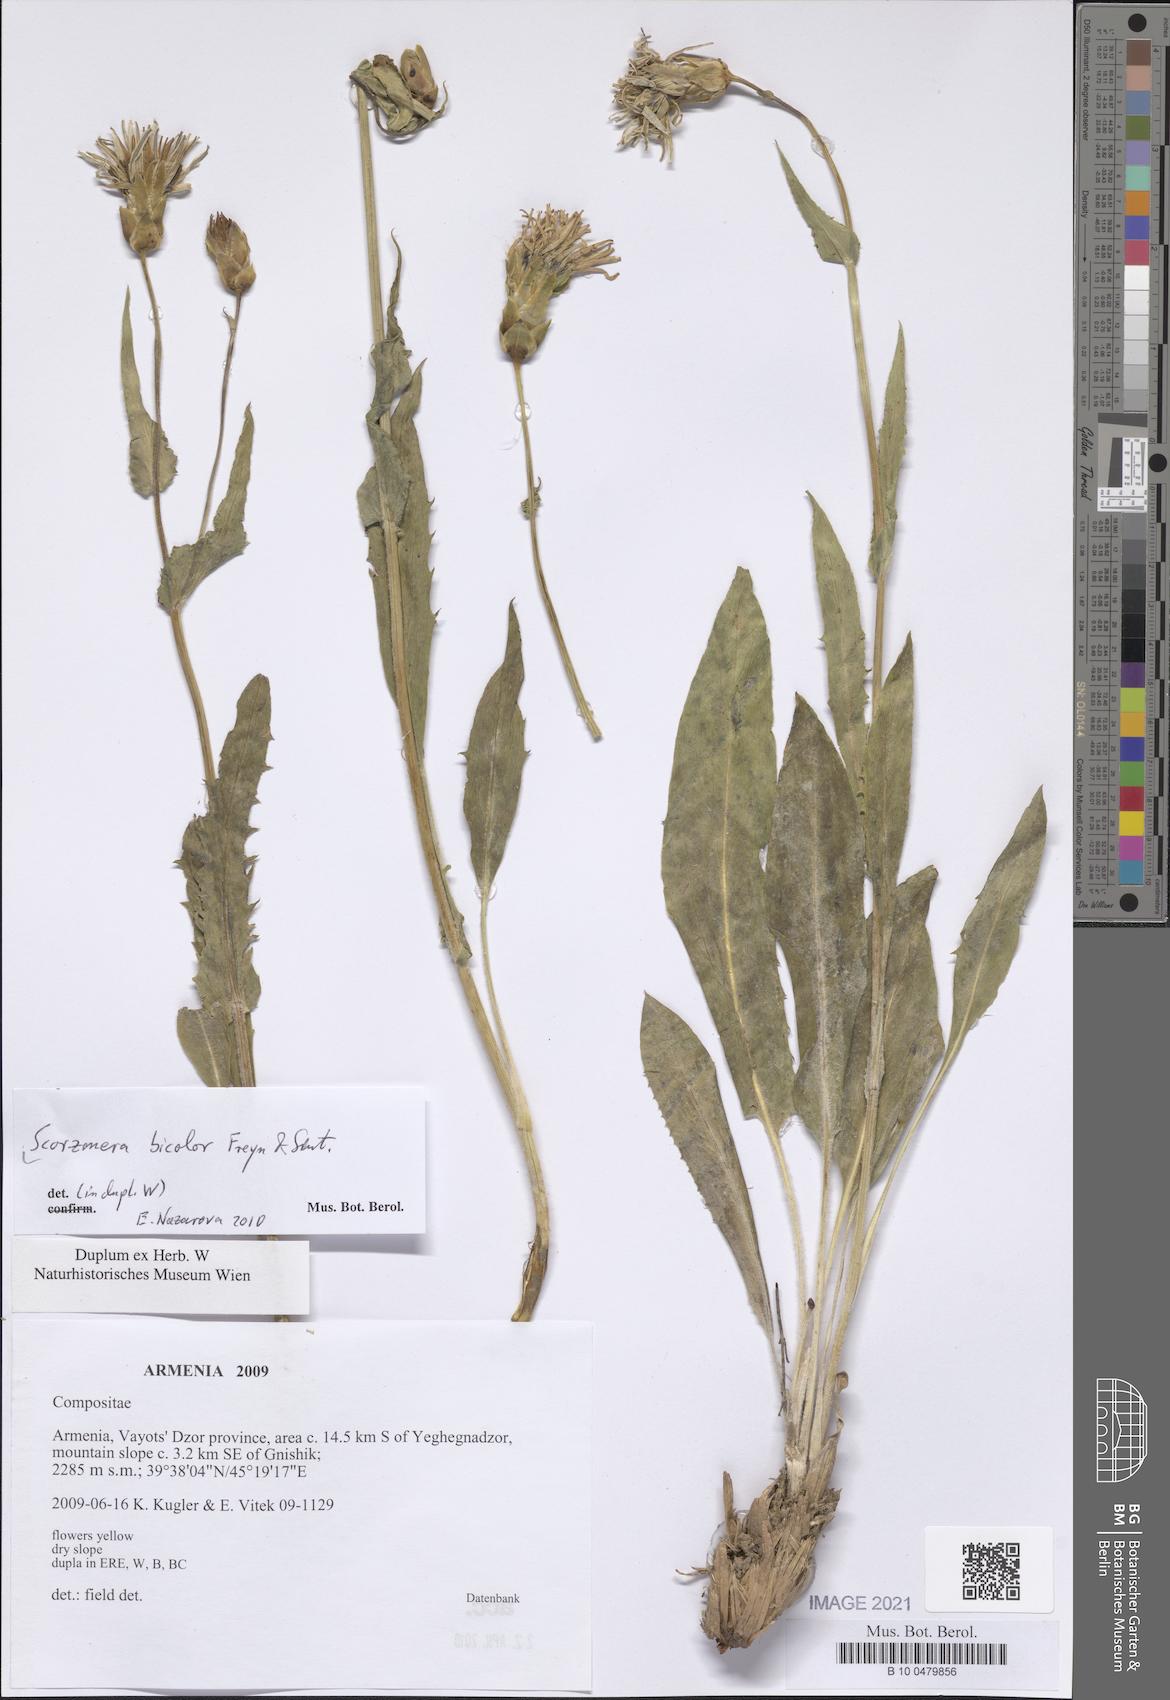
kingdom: Plantae
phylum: Tracheophyta
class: Magnoliopsida
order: Asterales
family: Asteraceae
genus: Aslia
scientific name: Aslia bicolor
